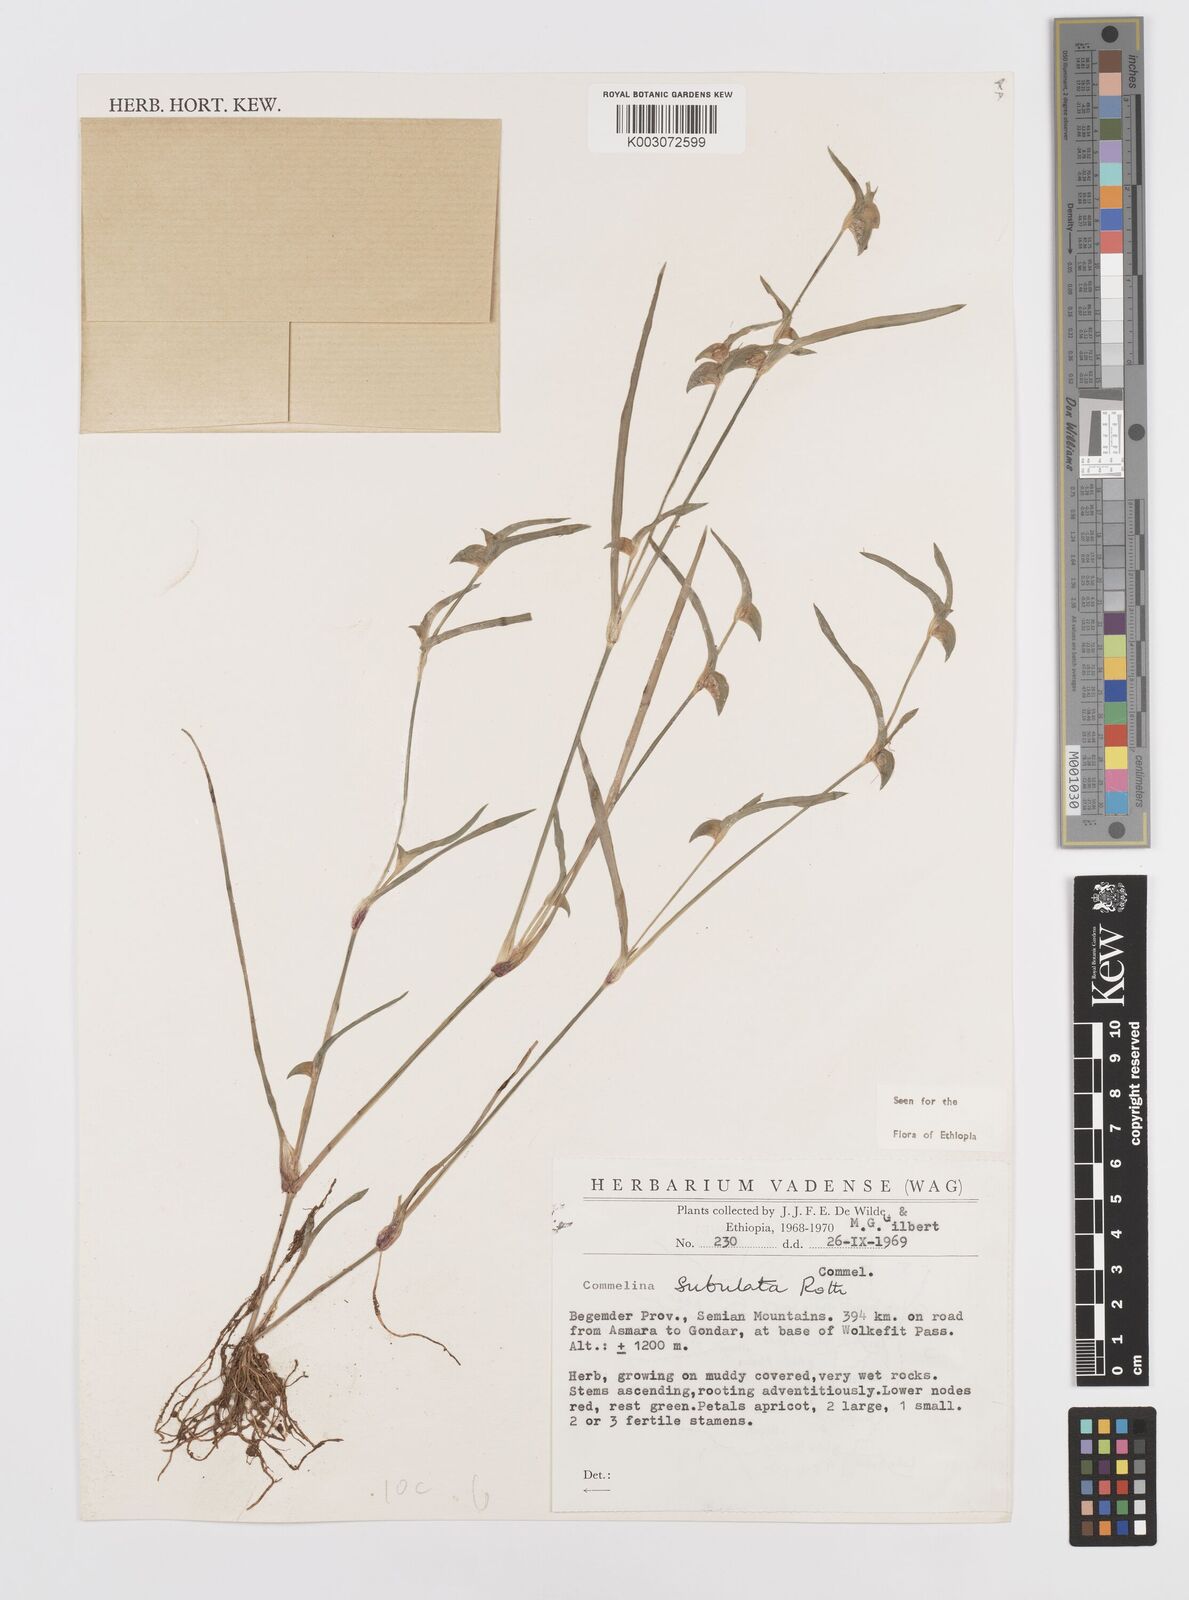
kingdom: Plantae
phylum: Tracheophyta
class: Liliopsida
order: Commelinales
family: Commelinaceae
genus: Commelina
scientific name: Commelina subulata
